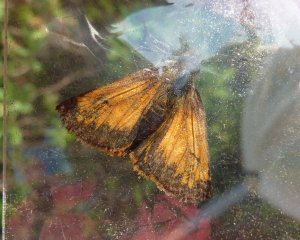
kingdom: Animalia
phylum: Arthropoda
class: Insecta
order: Lepidoptera
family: Hesperiidae
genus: Lon
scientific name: Lon hobomok
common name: Hobomok Skipper
